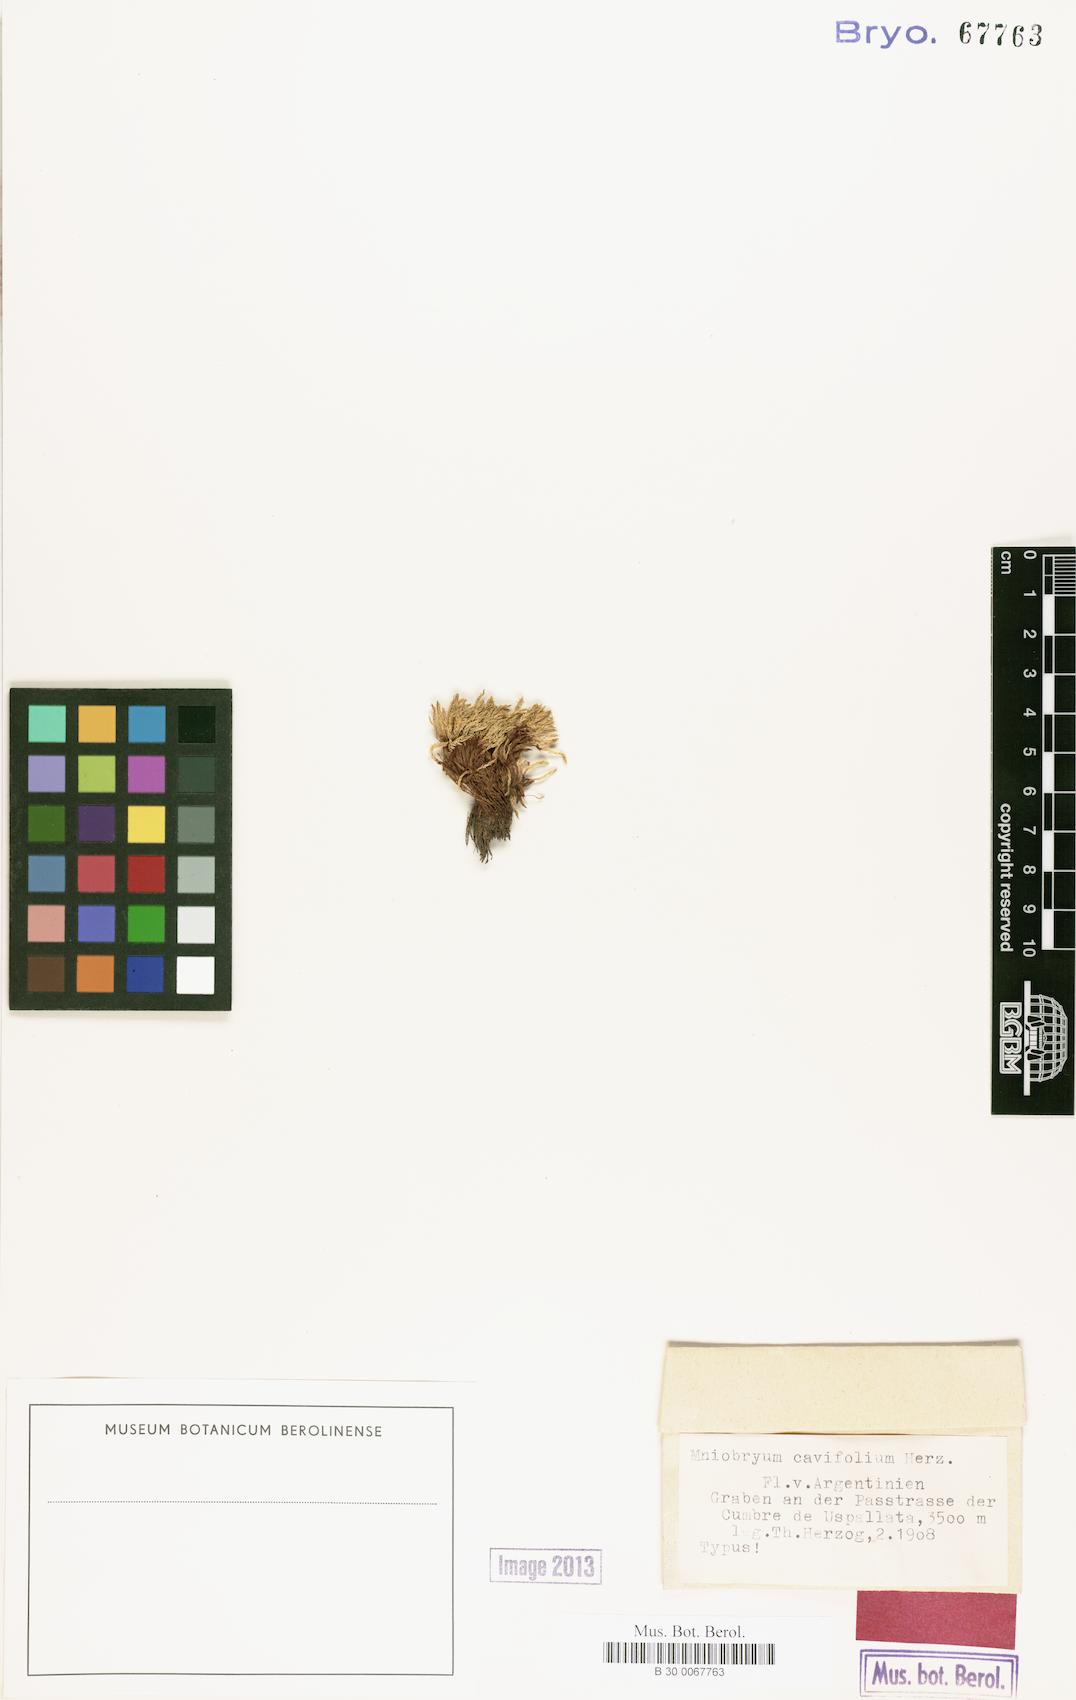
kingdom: Plantae
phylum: Bryophyta
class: Bryopsida
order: Bryales
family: Mniaceae
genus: Mniobryum
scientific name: Mniobryum
